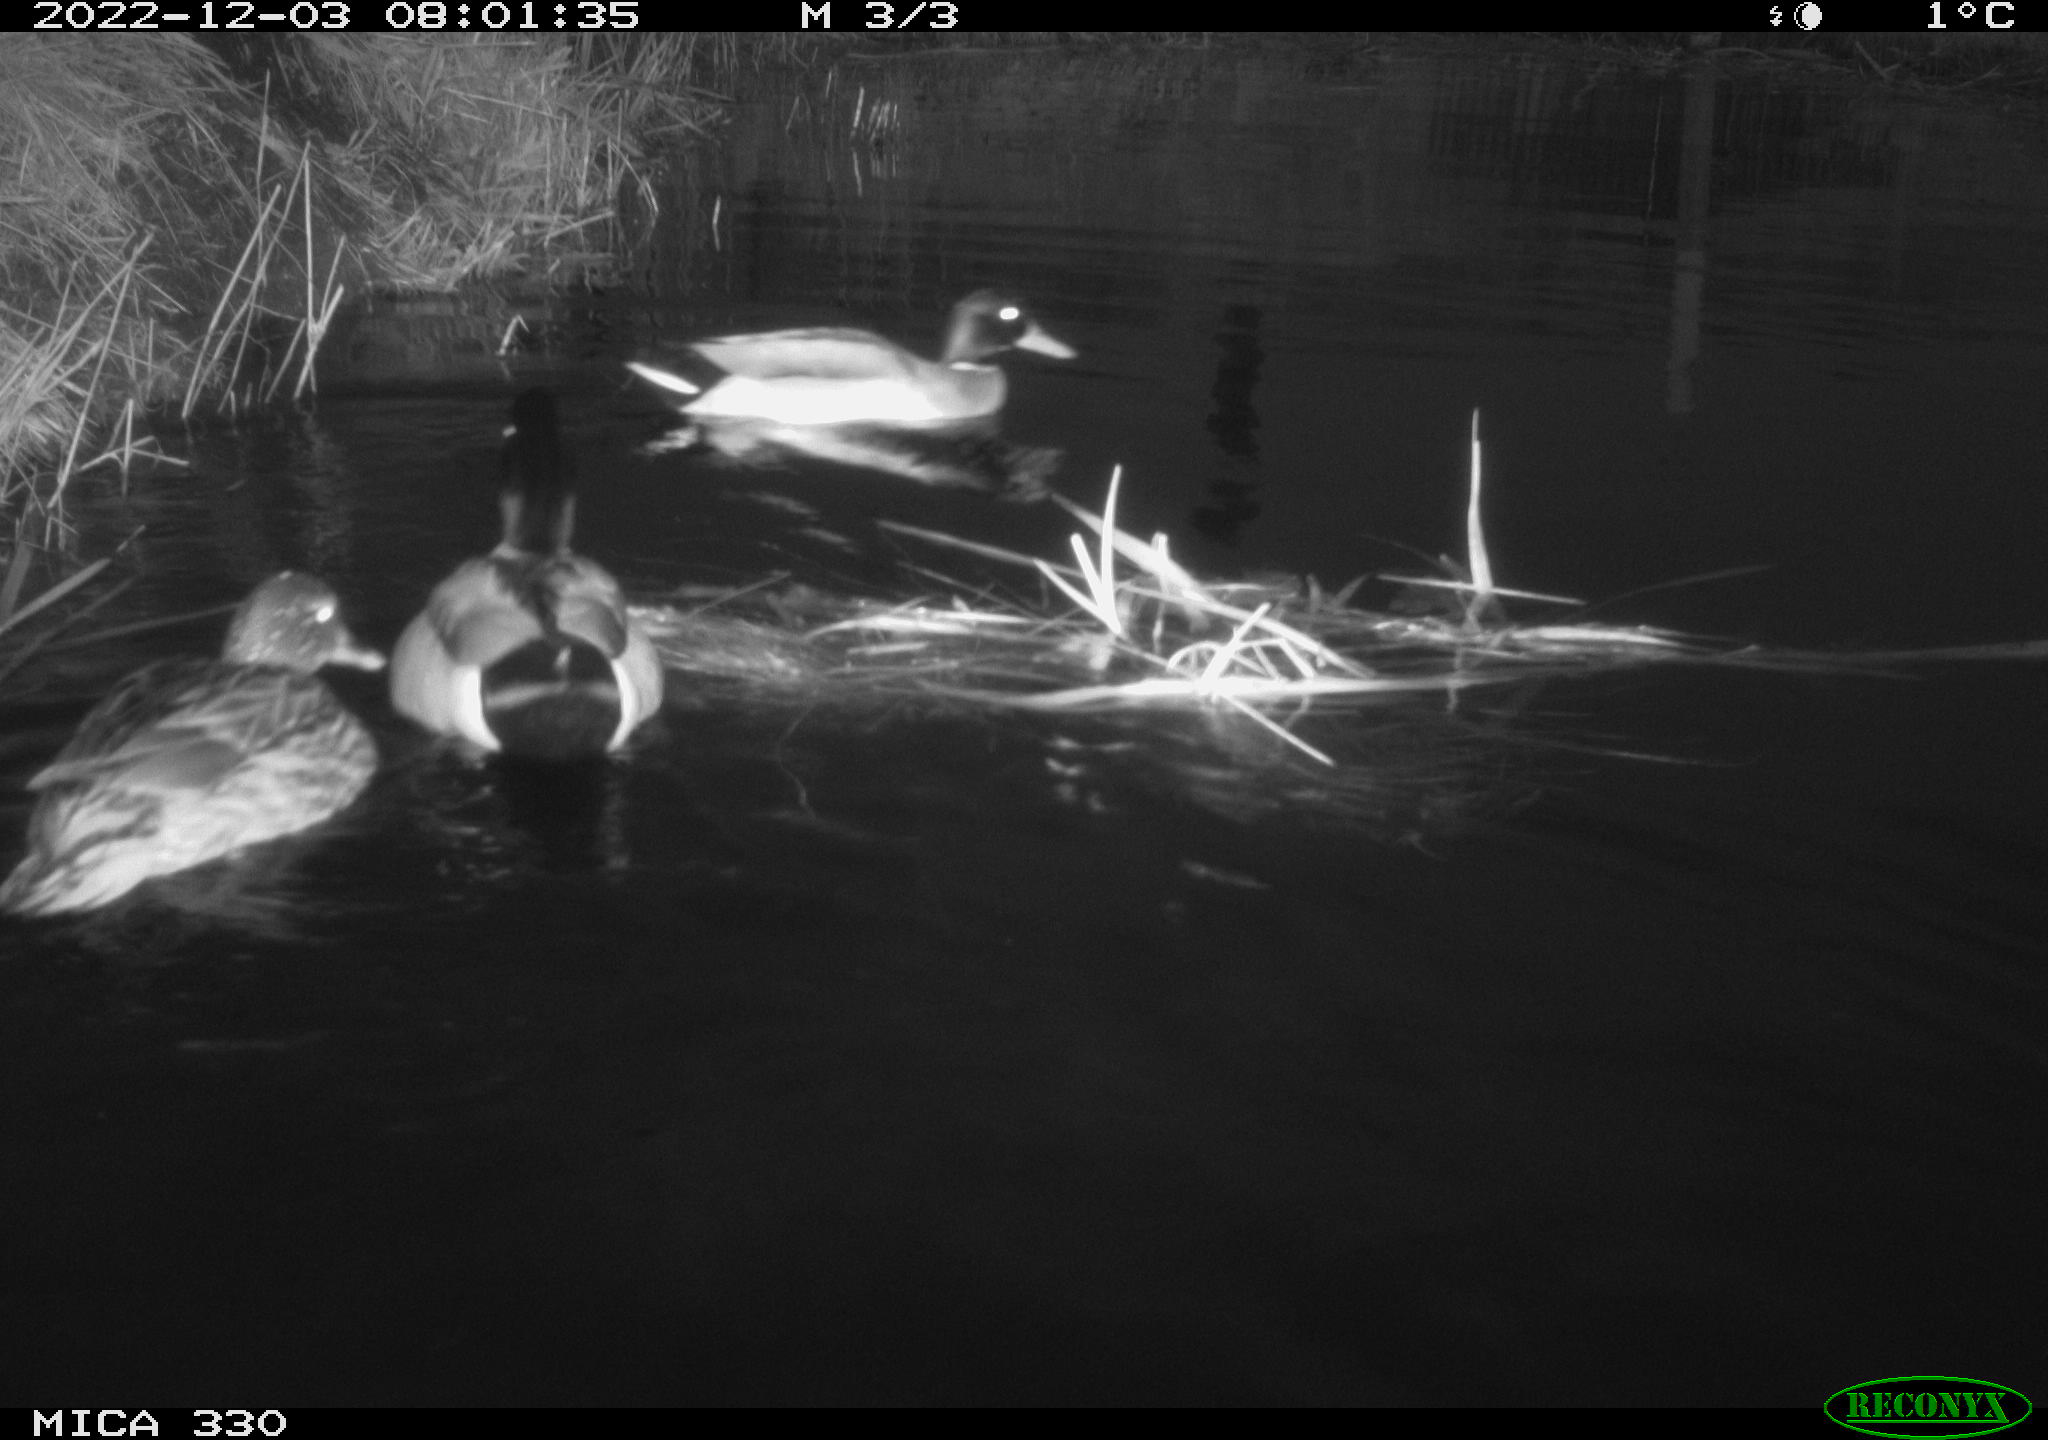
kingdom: Animalia
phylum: Chordata
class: Aves
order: Anseriformes
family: Anatidae
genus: Anas
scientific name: Anas
